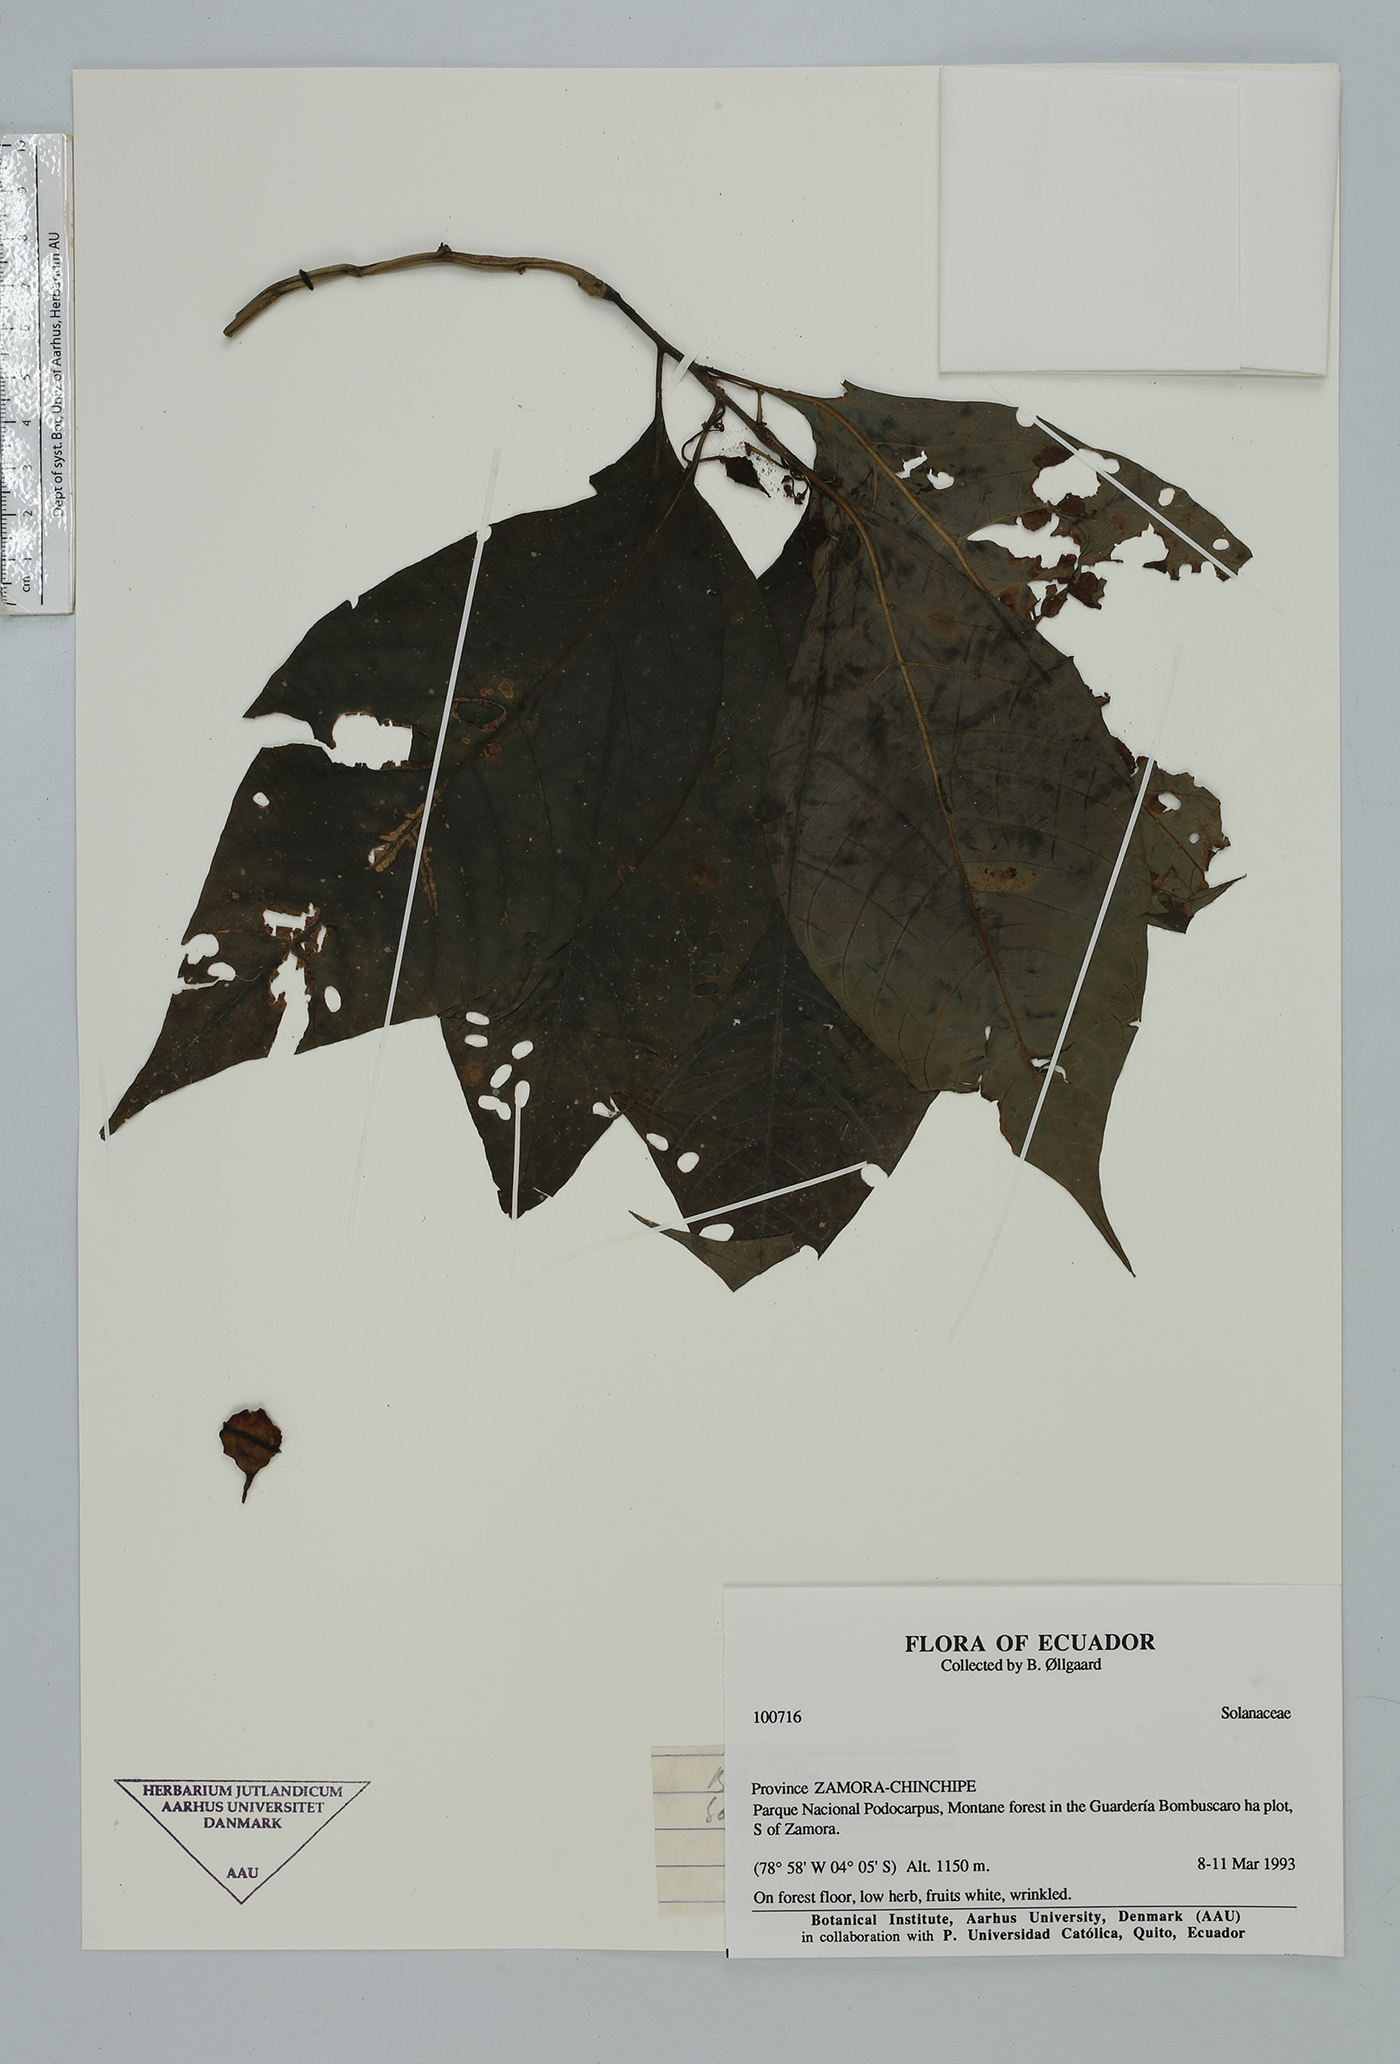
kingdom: Plantae
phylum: Tracheophyta
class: Magnoliopsida
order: Solanales
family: Solanaceae
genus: Solanum
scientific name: Solanum
